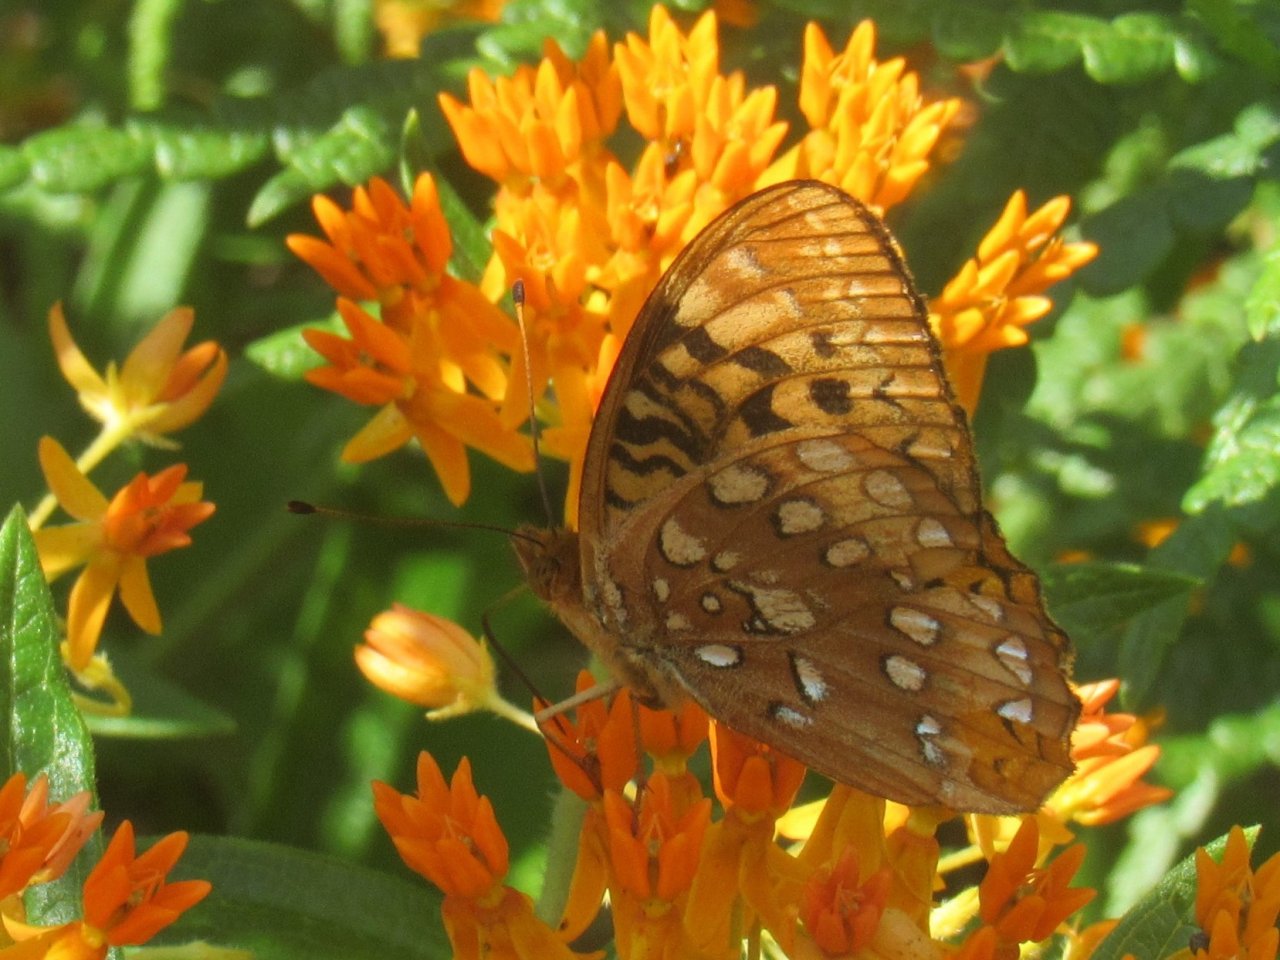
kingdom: Animalia
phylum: Arthropoda
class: Insecta
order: Lepidoptera
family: Nymphalidae
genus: Speyeria
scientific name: Speyeria cybele
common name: Great Spangled Fritillary
